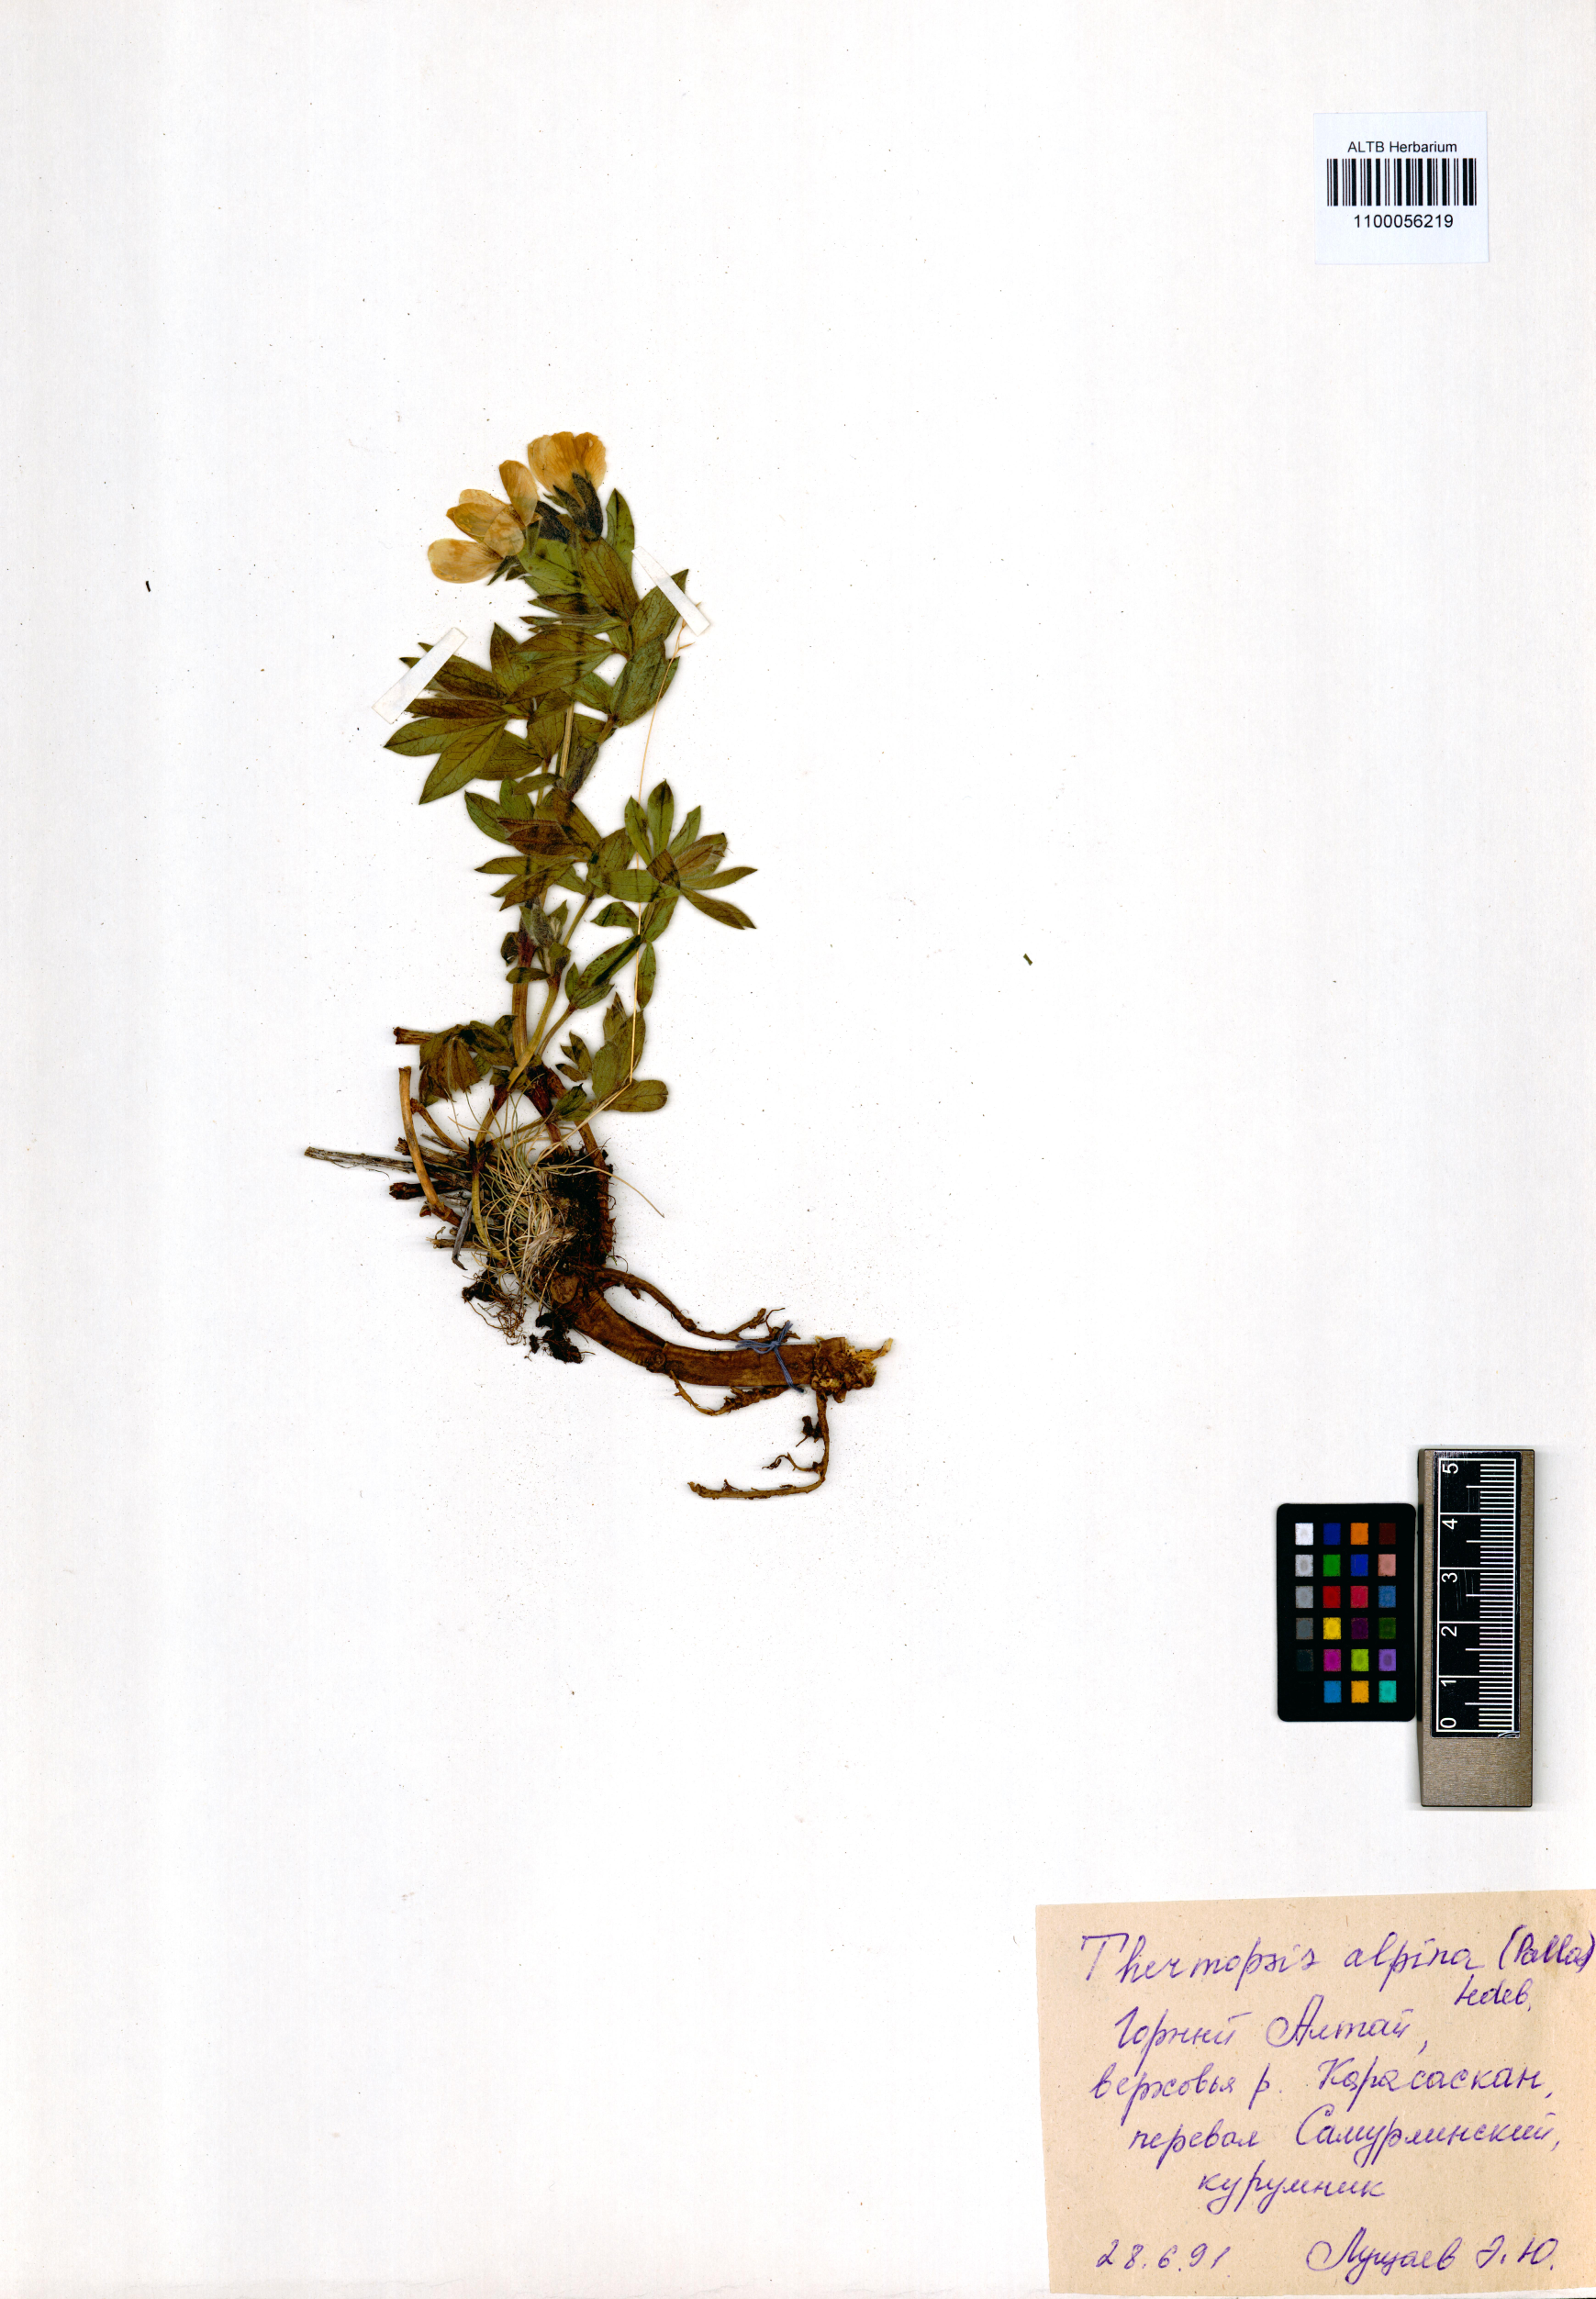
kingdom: Plantae
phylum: Tracheophyta
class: Magnoliopsida
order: Fabales
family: Fabaceae
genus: Thermopsis
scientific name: Thermopsis alpina
